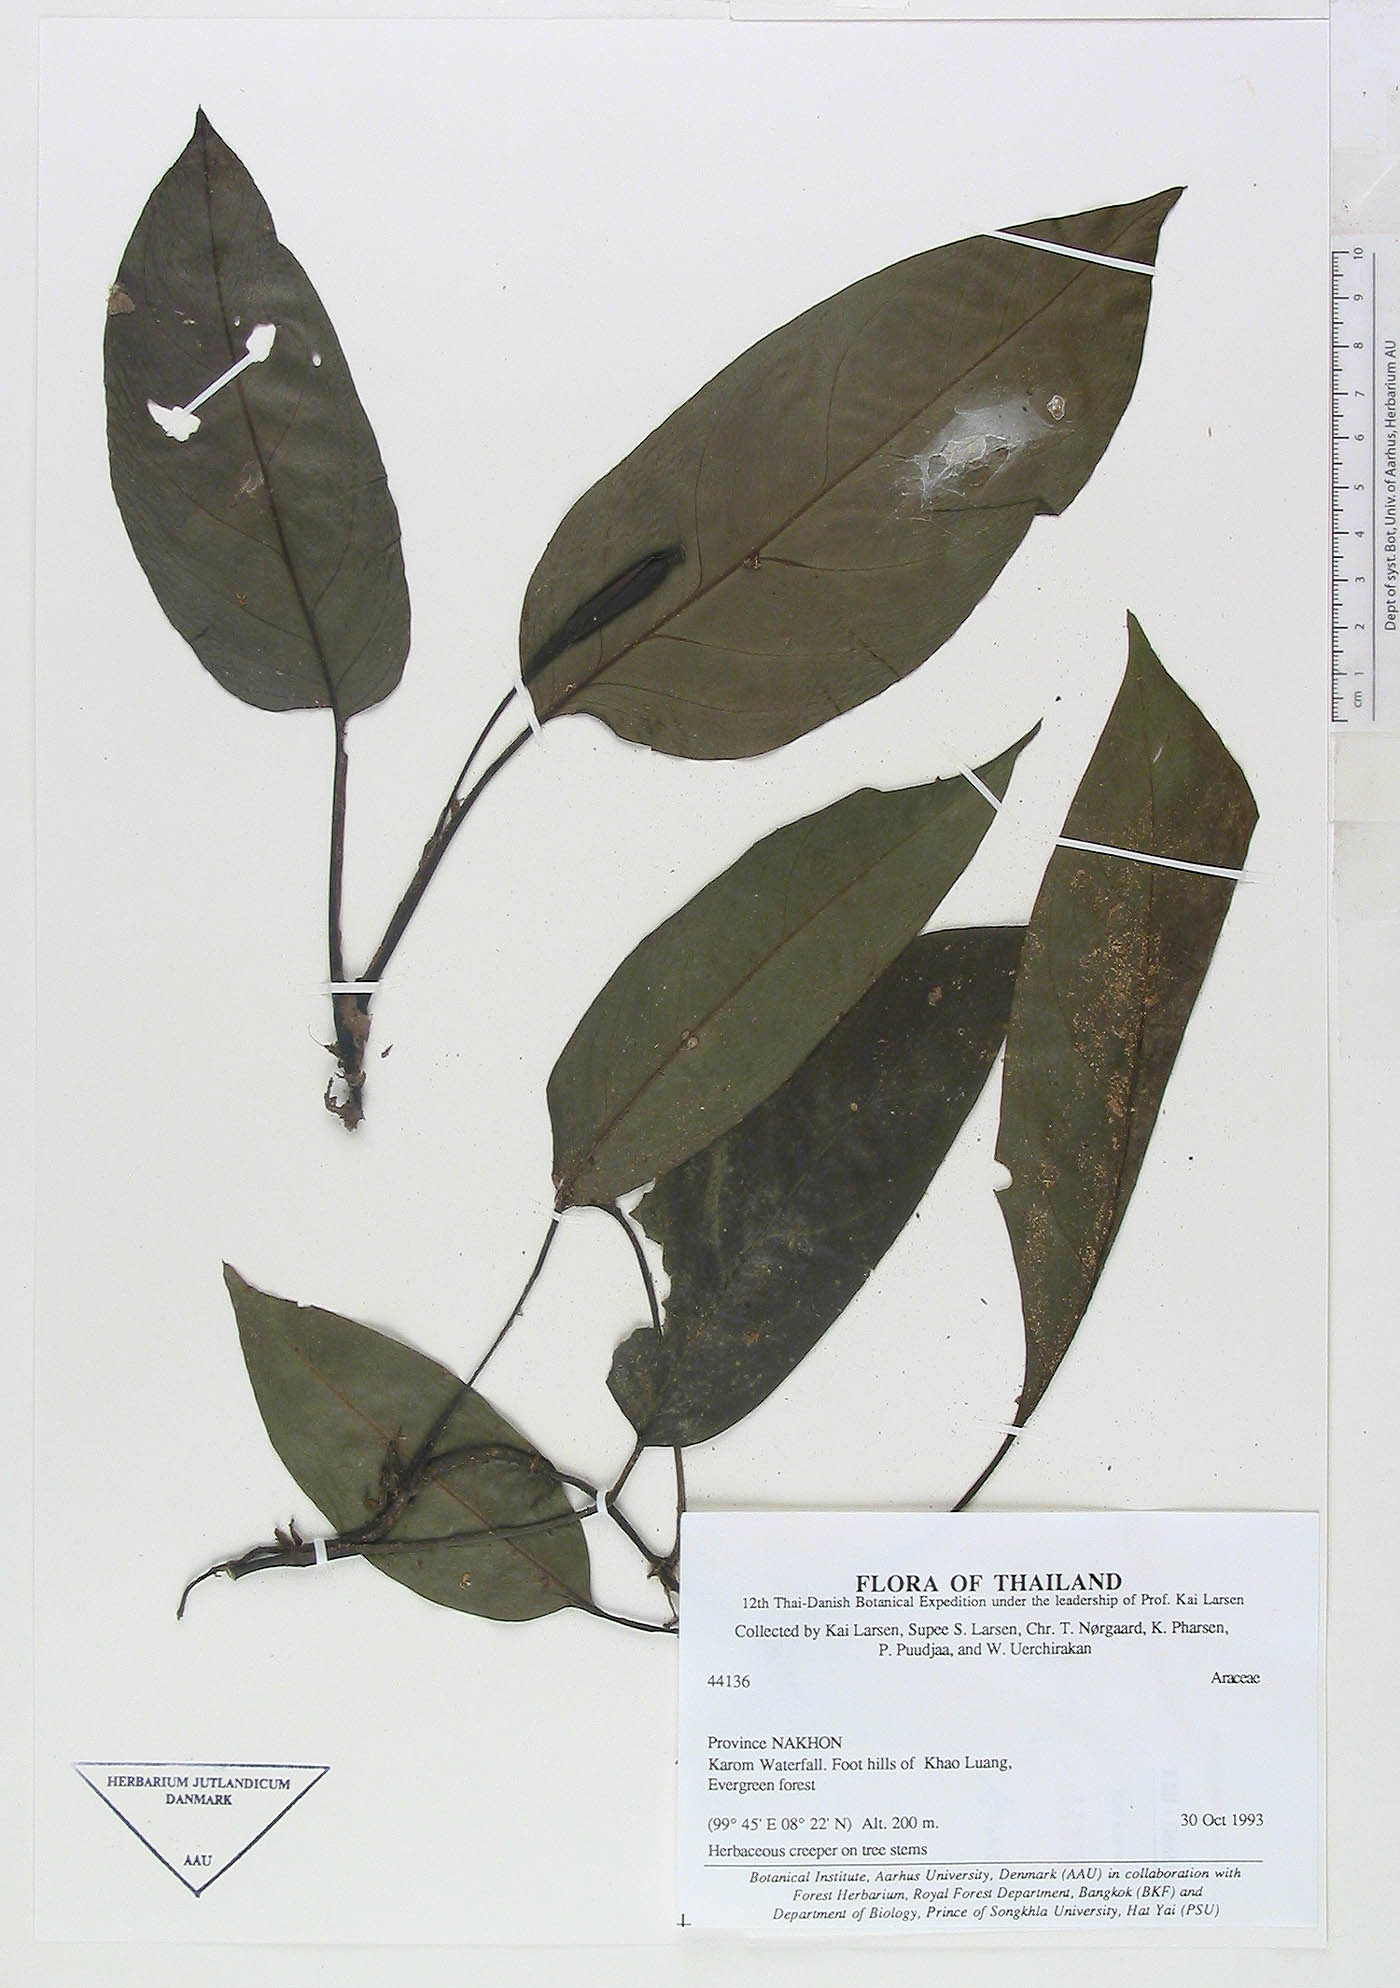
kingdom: Plantae
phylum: Tracheophyta
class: Liliopsida
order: Alismatales
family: Araceae
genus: Anadendrum
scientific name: Anadendrum marcesovaginatum
